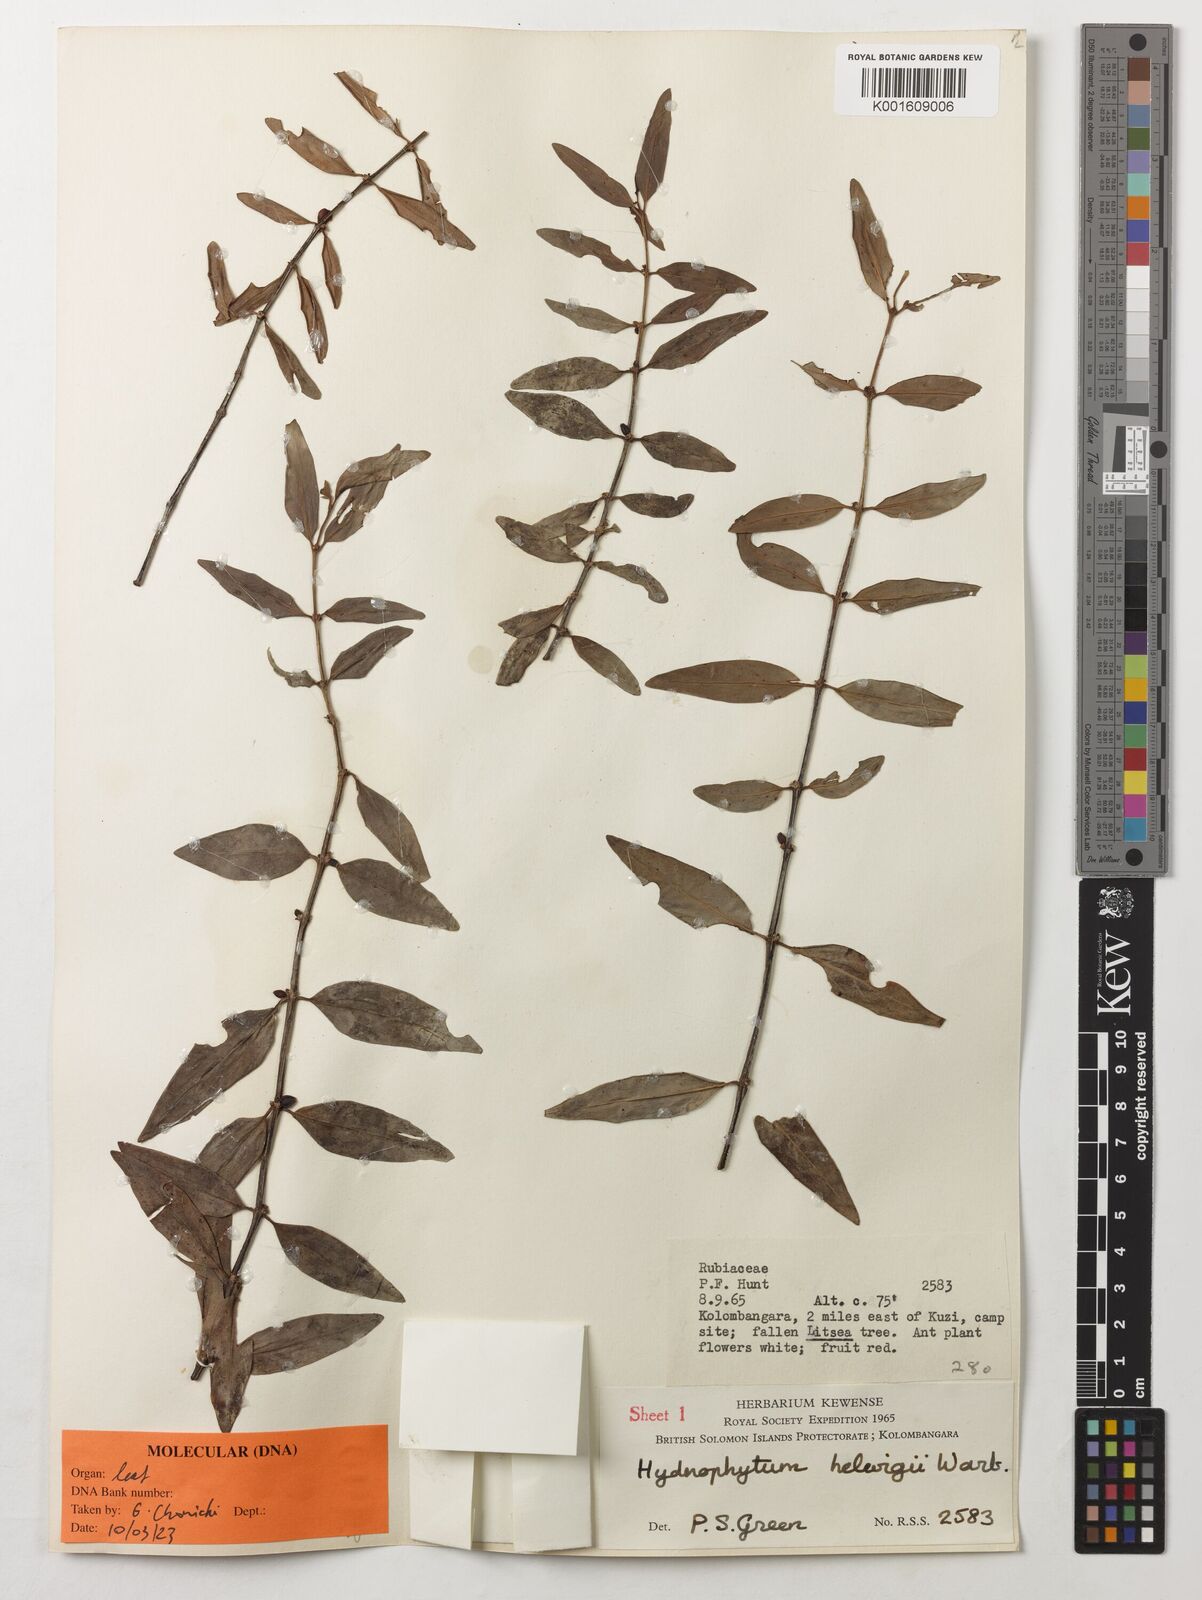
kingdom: Plantae
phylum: Tracheophyta
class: Magnoliopsida
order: Gentianales
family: Rubiaceae
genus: Hydnophytum
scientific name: Hydnophytum hellwigii
